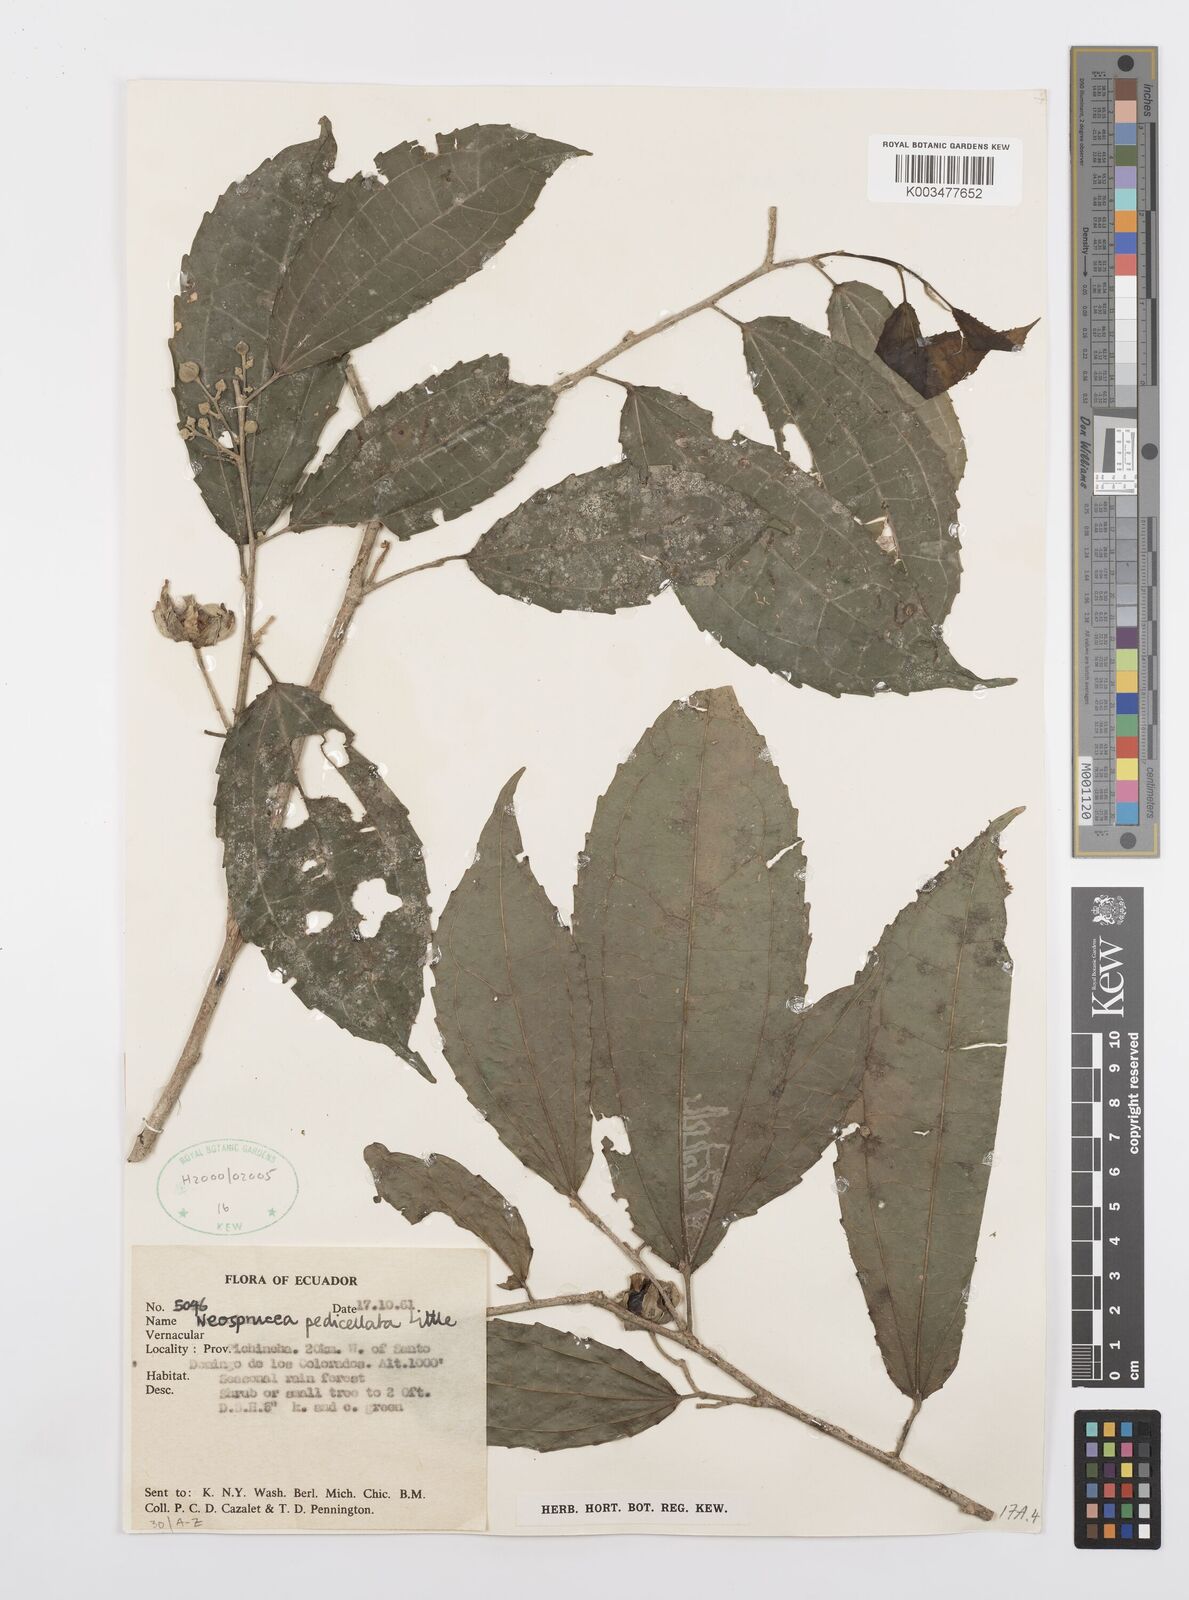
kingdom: Plantae
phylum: Tracheophyta
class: Magnoliopsida
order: Malpighiales
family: Salicaceae
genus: Neosprucea
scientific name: Neosprucea pedicellata
